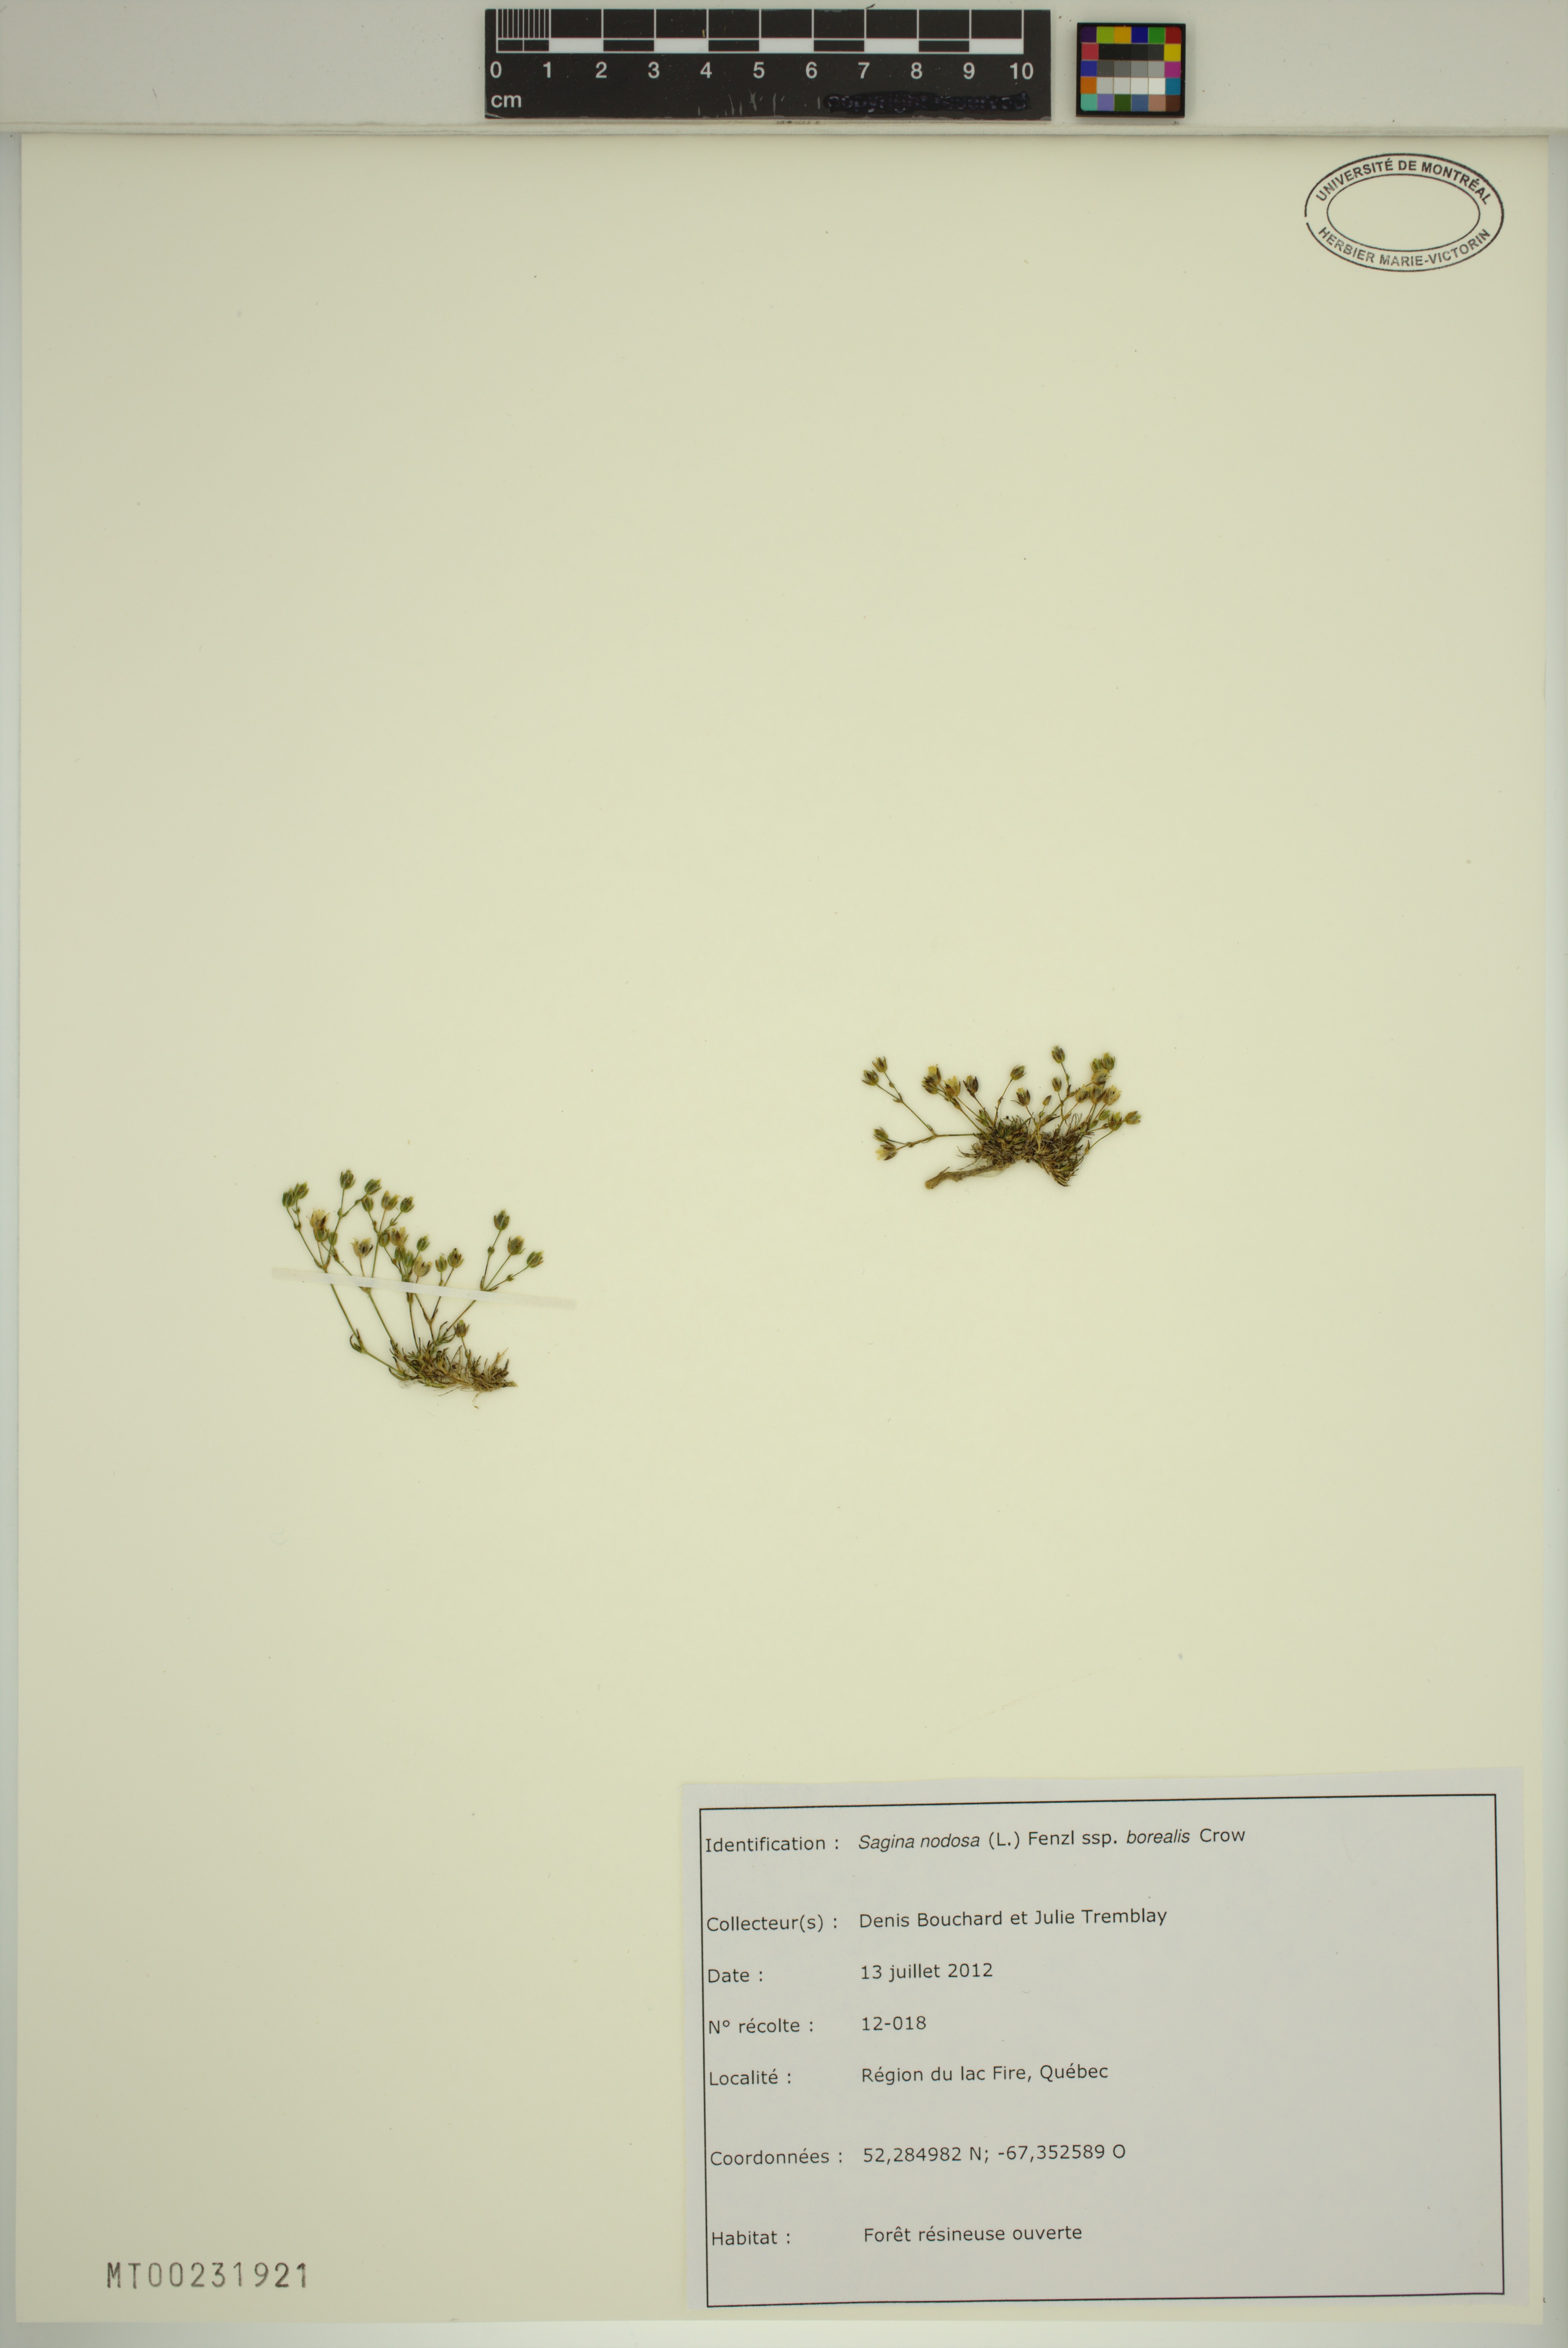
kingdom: Plantae
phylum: Tracheophyta
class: Magnoliopsida
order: Caryophyllales
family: Caryophyllaceae
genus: Sagina
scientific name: Sagina nodosa
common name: Knotted pearlwort
